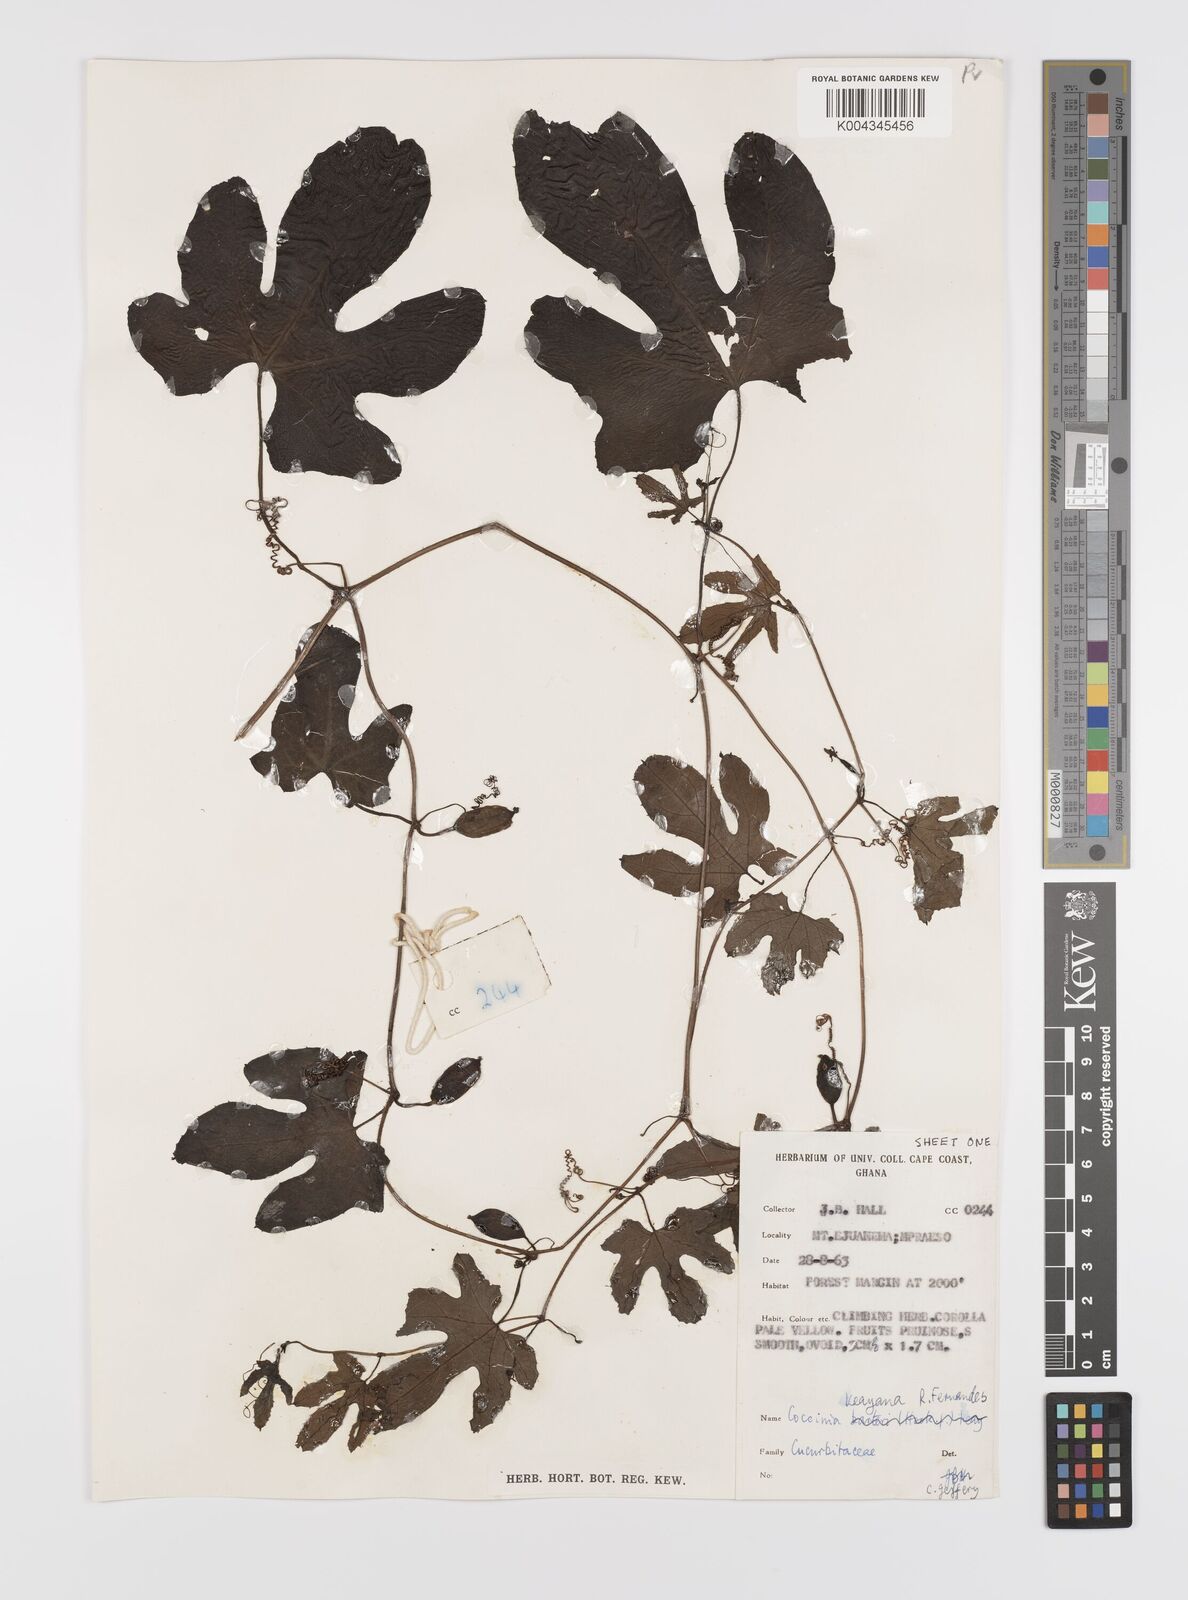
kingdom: Plantae
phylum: Tracheophyta
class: Magnoliopsida
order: Cucurbitales
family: Cucurbitaceae
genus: Coccinia
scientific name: Coccinia keayana
